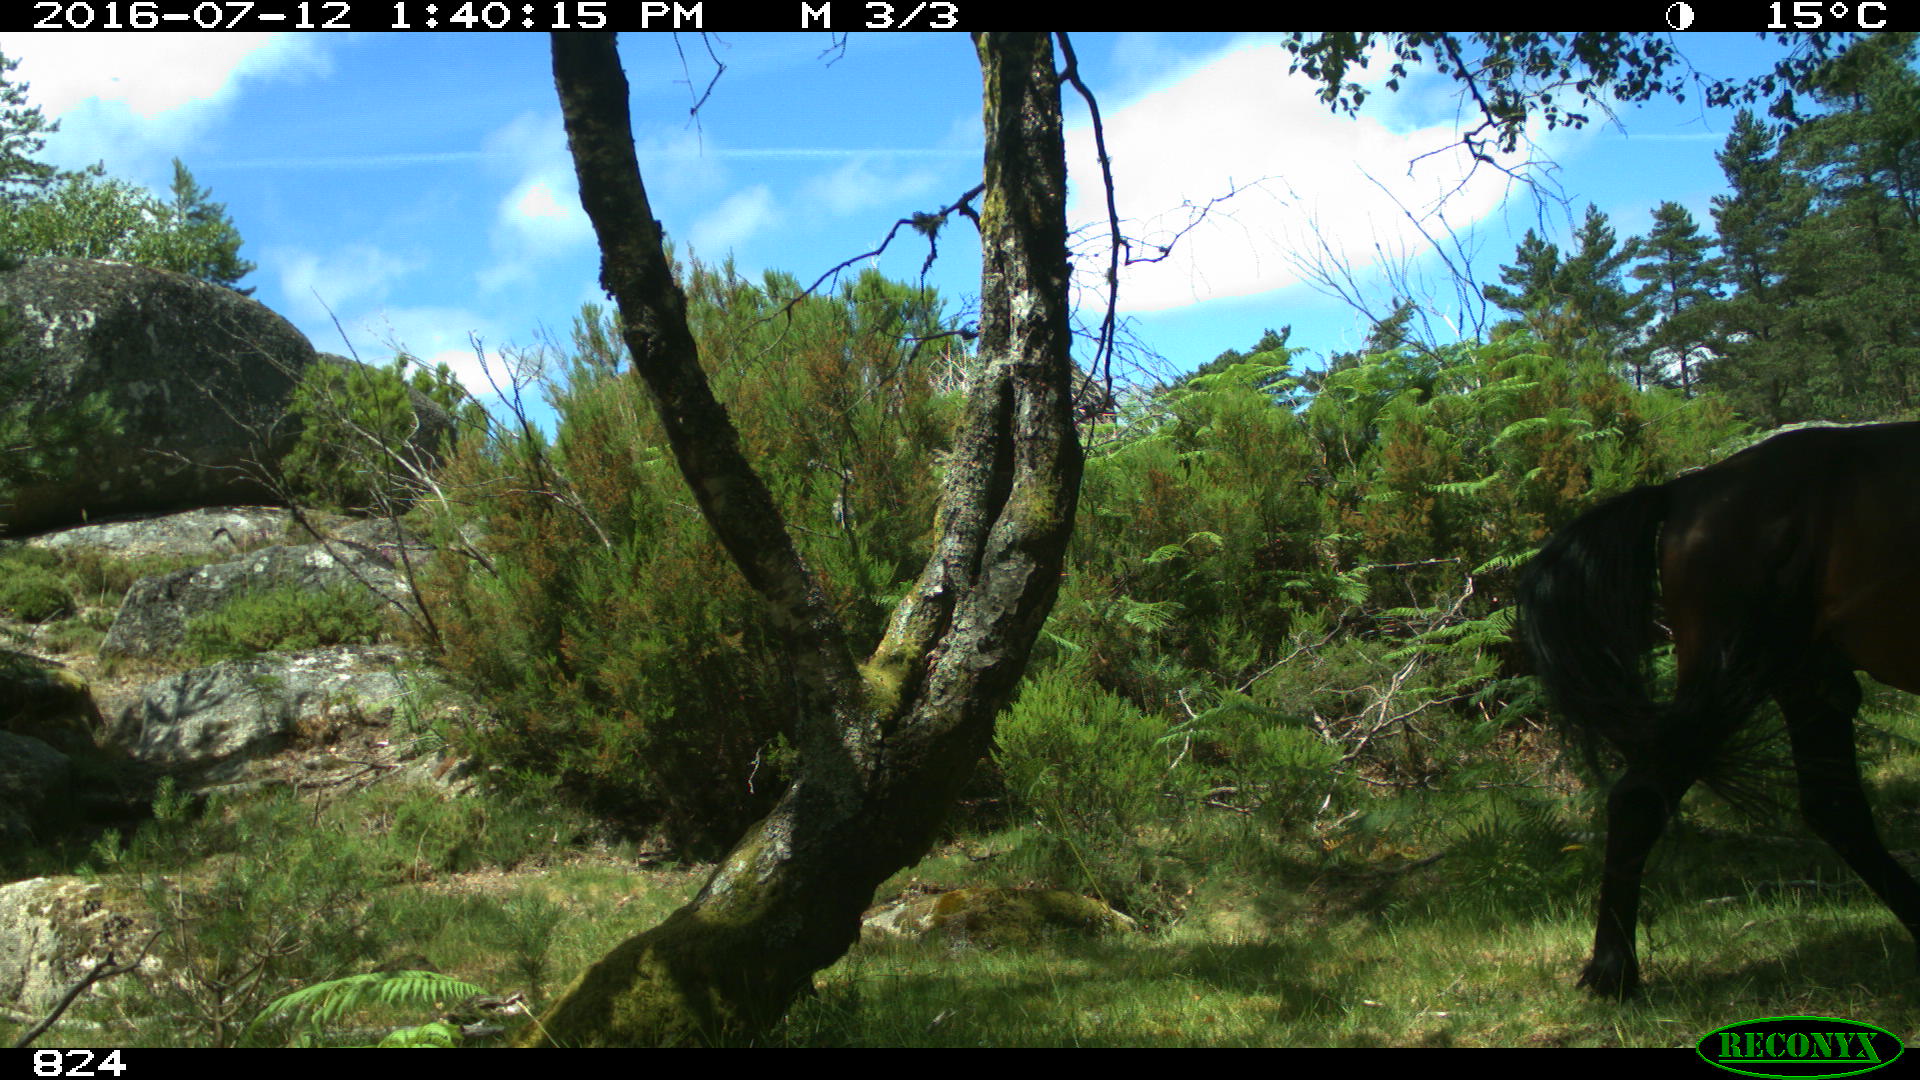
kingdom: Animalia
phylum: Chordata
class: Mammalia
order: Perissodactyla
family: Equidae
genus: Equus
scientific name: Equus caballus
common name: Horse
